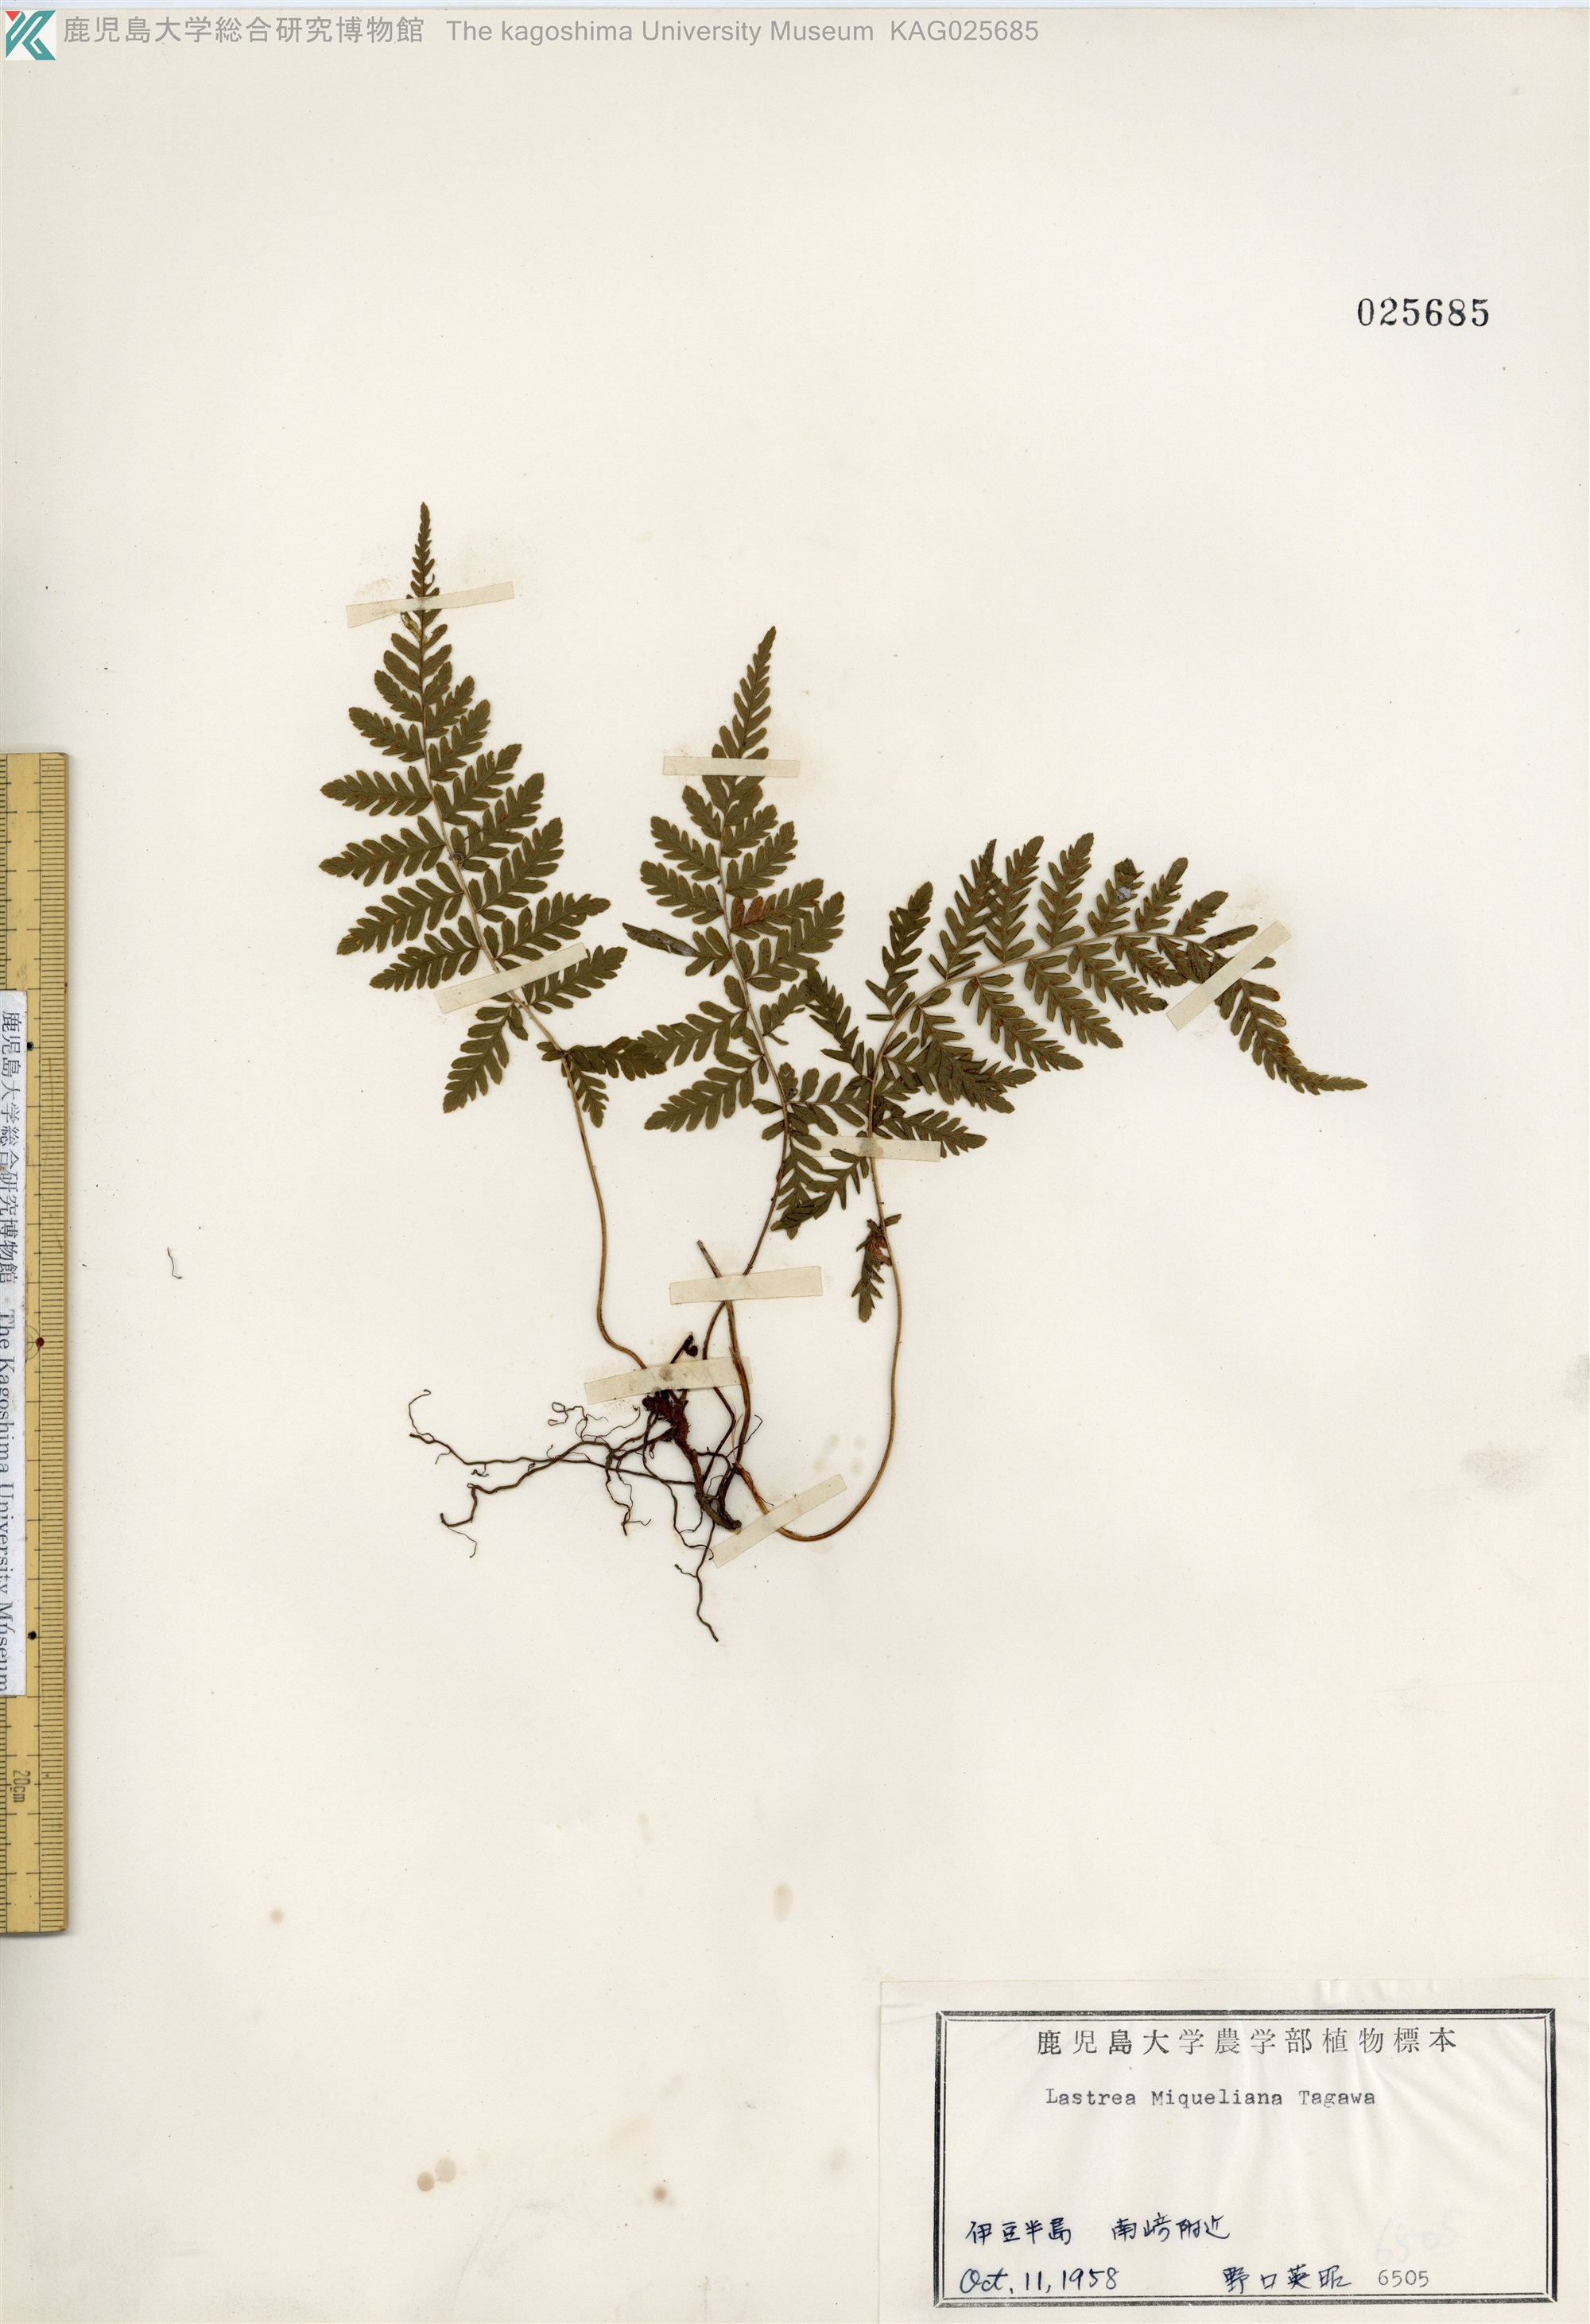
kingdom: Plantae
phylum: Tracheophyta
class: Polypodiopsida
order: Polypodiales
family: Thelypteridaceae
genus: Amauropelta
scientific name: Amauropelta angustifrons
